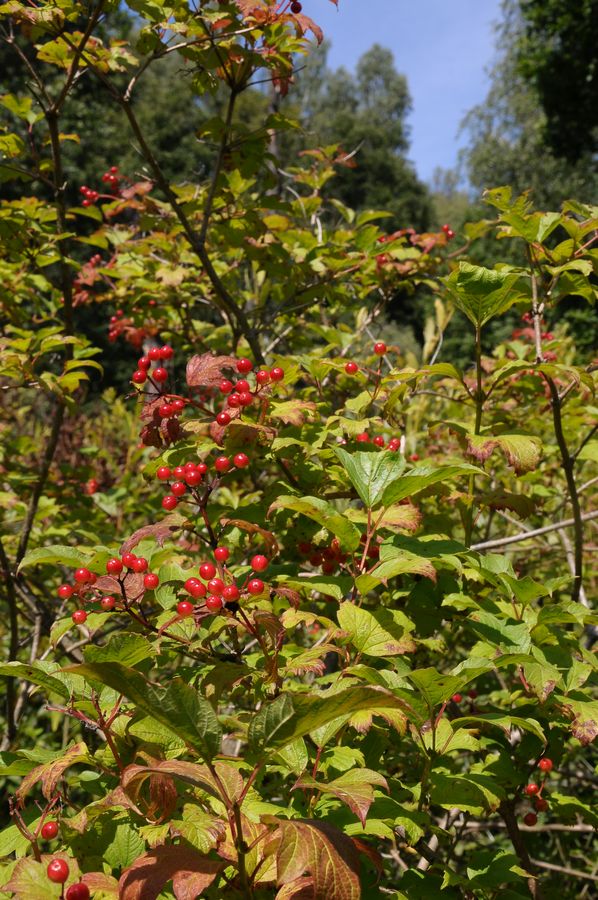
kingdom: Plantae
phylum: Tracheophyta
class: Magnoliopsida
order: Dipsacales
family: Viburnaceae
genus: Viburnum
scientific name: Viburnum opulus
